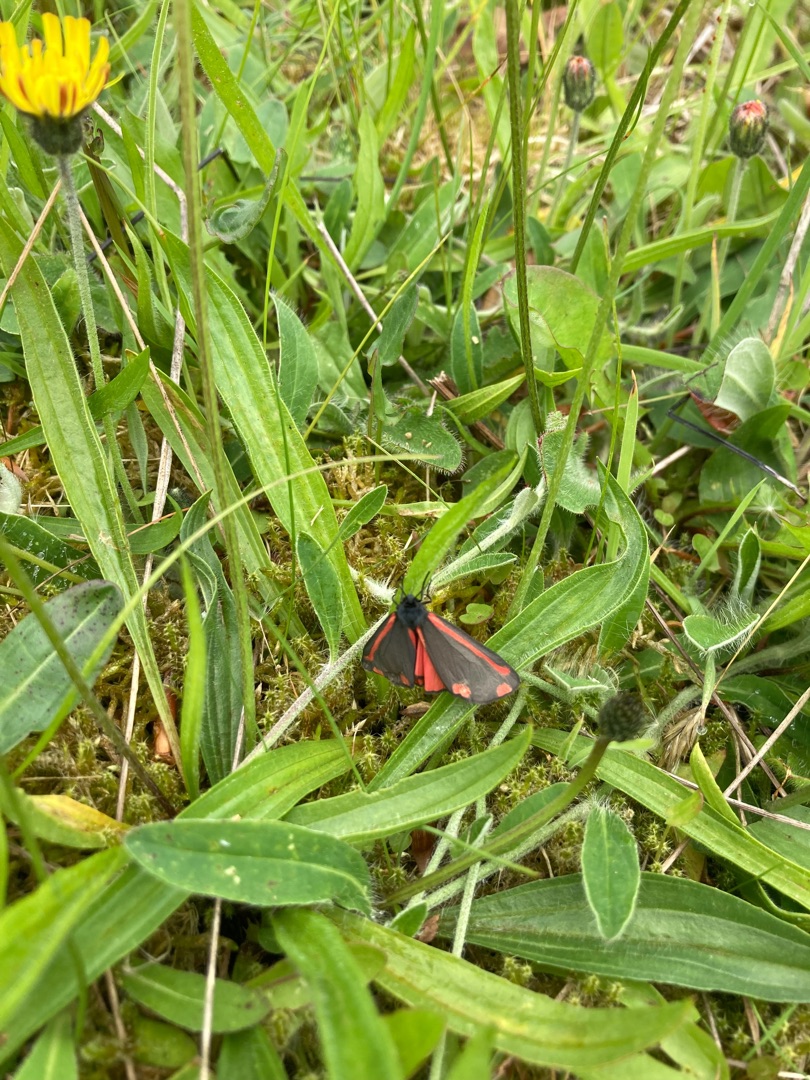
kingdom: Animalia
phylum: Arthropoda
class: Insecta
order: Lepidoptera
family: Erebidae
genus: Tyria
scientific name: Tyria jacobaeae
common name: Blodplet
